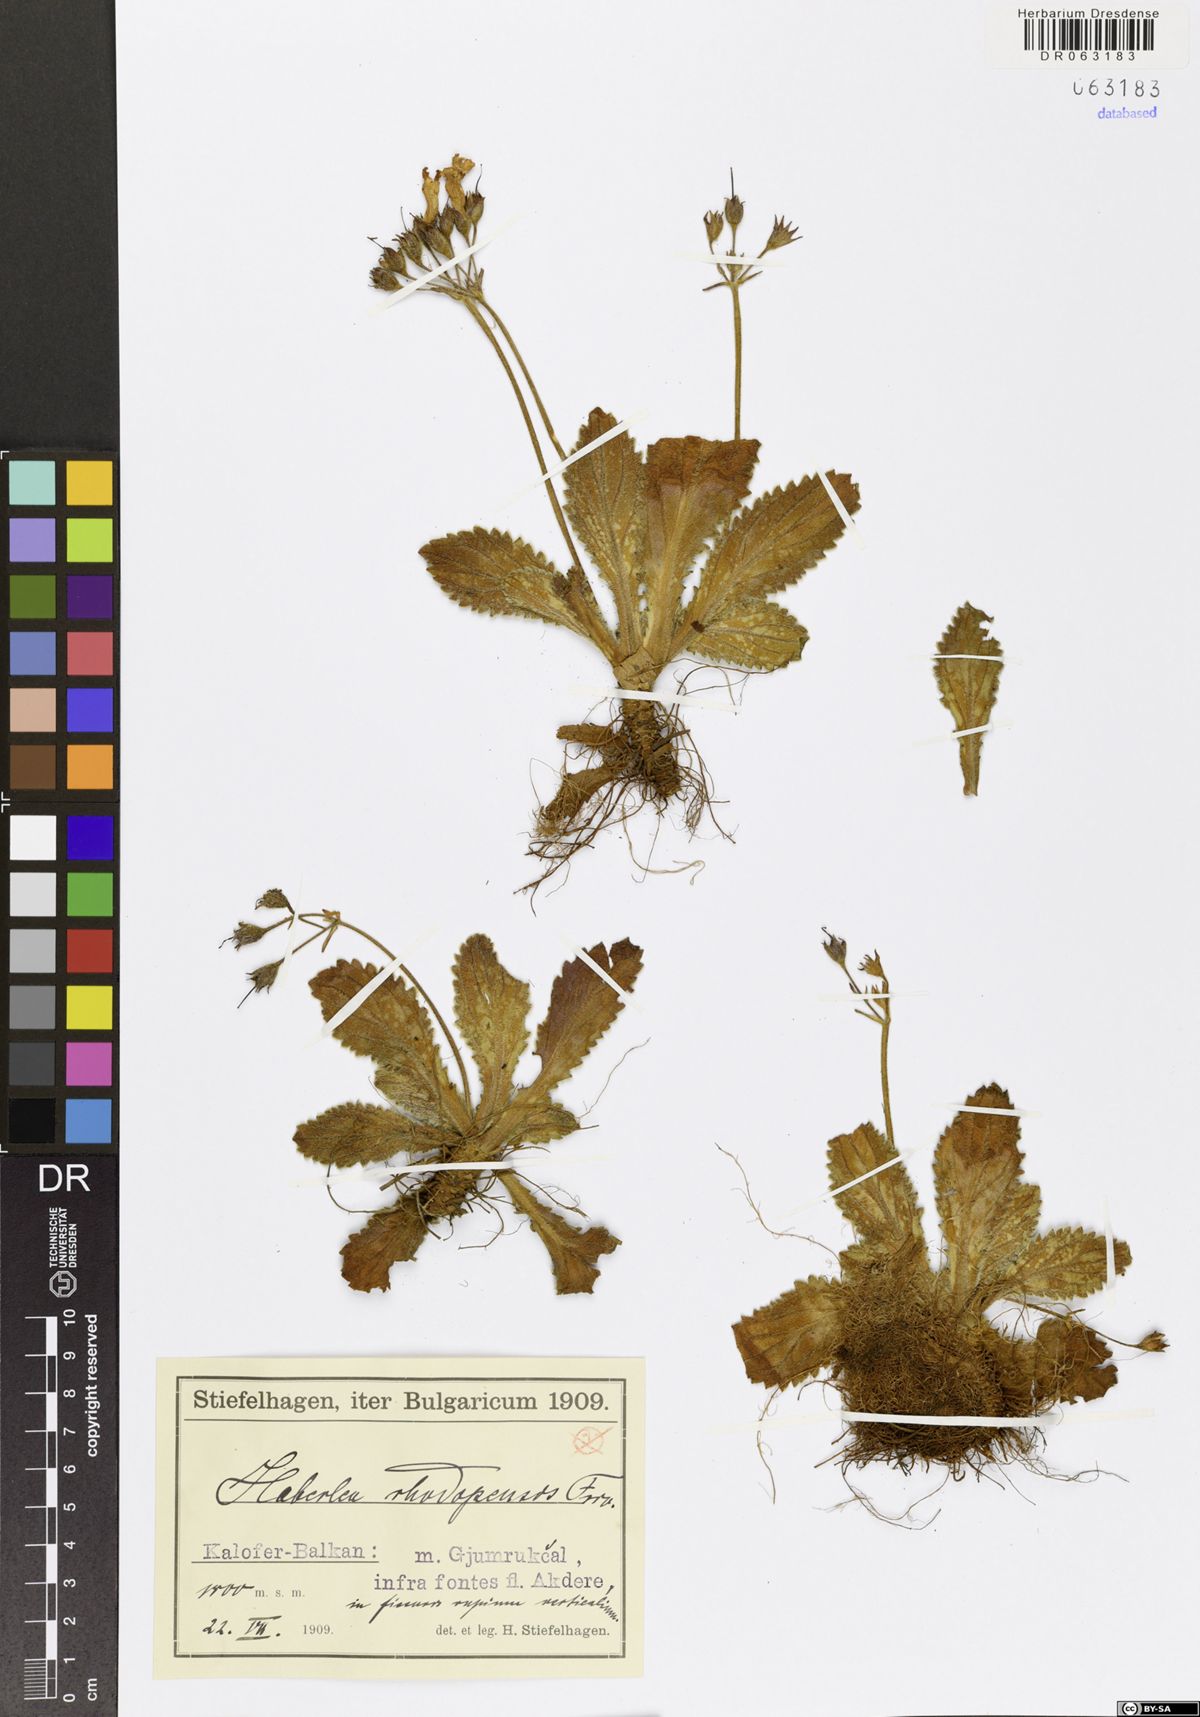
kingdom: Plantae
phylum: Tracheophyta
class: Magnoliopsida
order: Lamiales
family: Gesneriaceae
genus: Haberlea
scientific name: Haberlea rhodopensis
